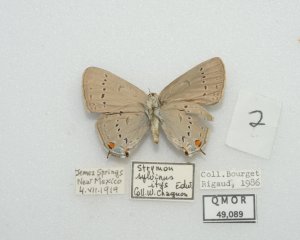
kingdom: Animalia
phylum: Arthropoda
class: Insecta
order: Lepidoptera
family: Lycaenidae
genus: Strymon
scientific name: Strymon sylvinus
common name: Sylvan Hairstreak
